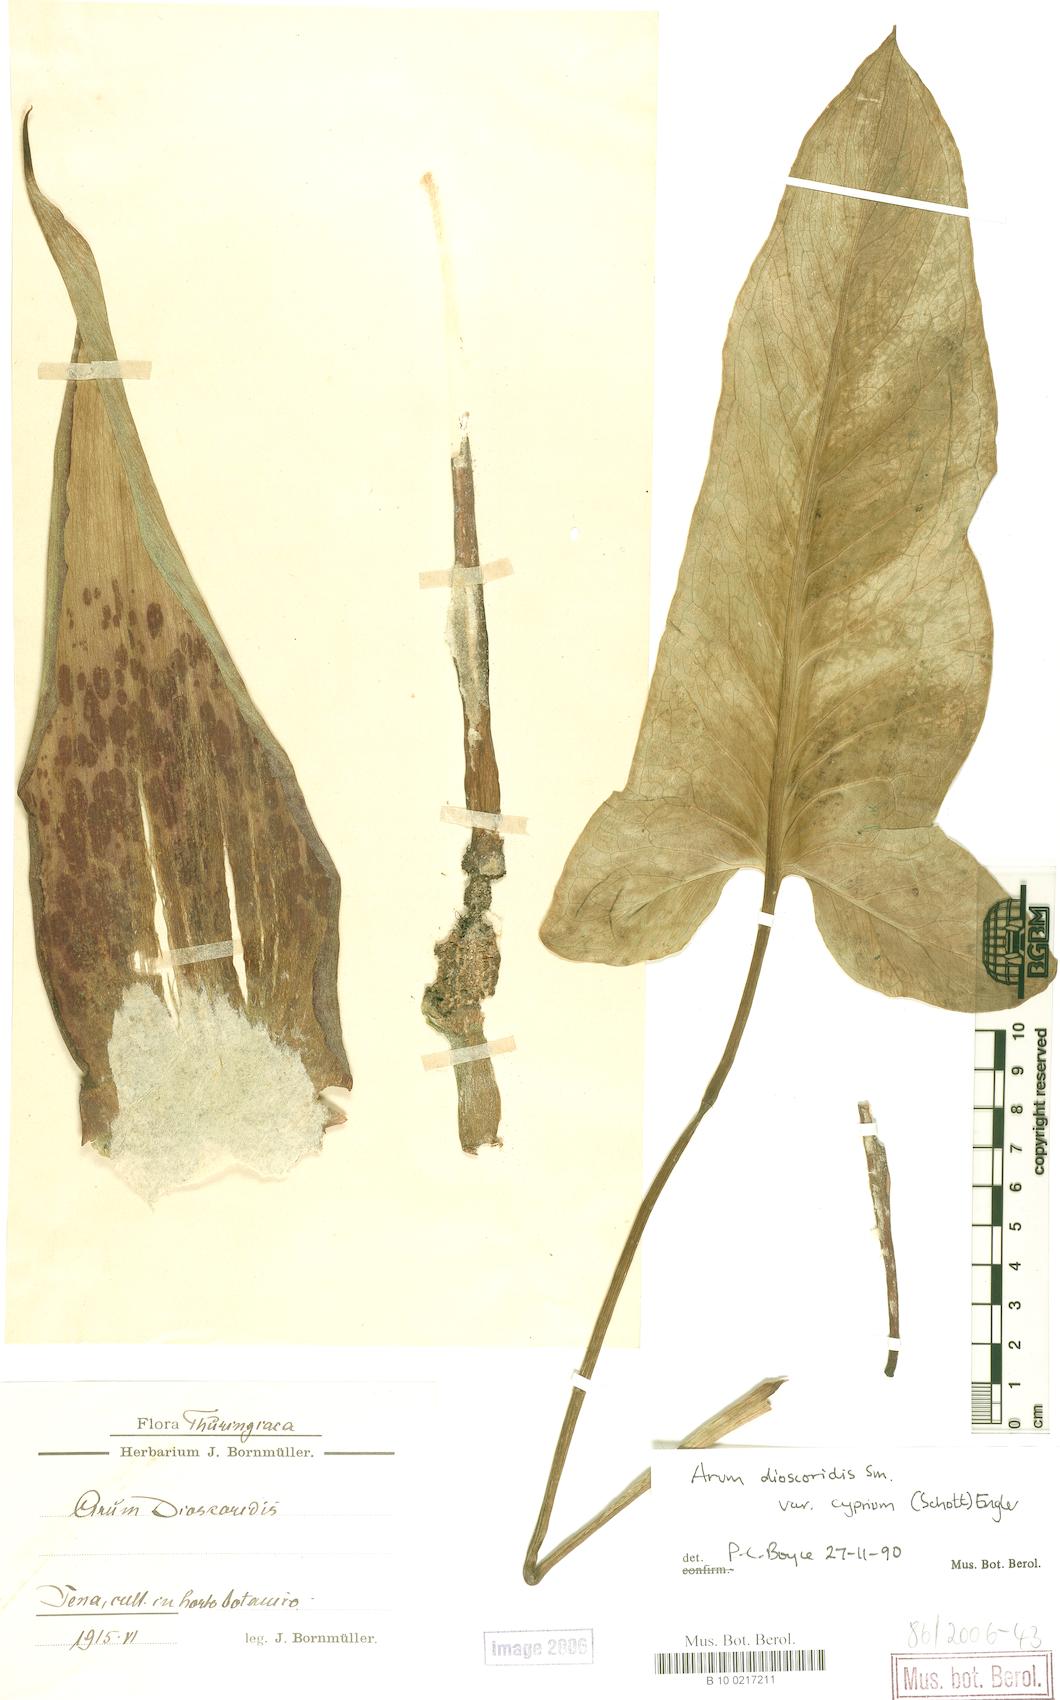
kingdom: Plantae
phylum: Tracheophyta
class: Liliopsida
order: Alismatales
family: Araceae
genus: Arum
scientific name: Arum dioscoridis
